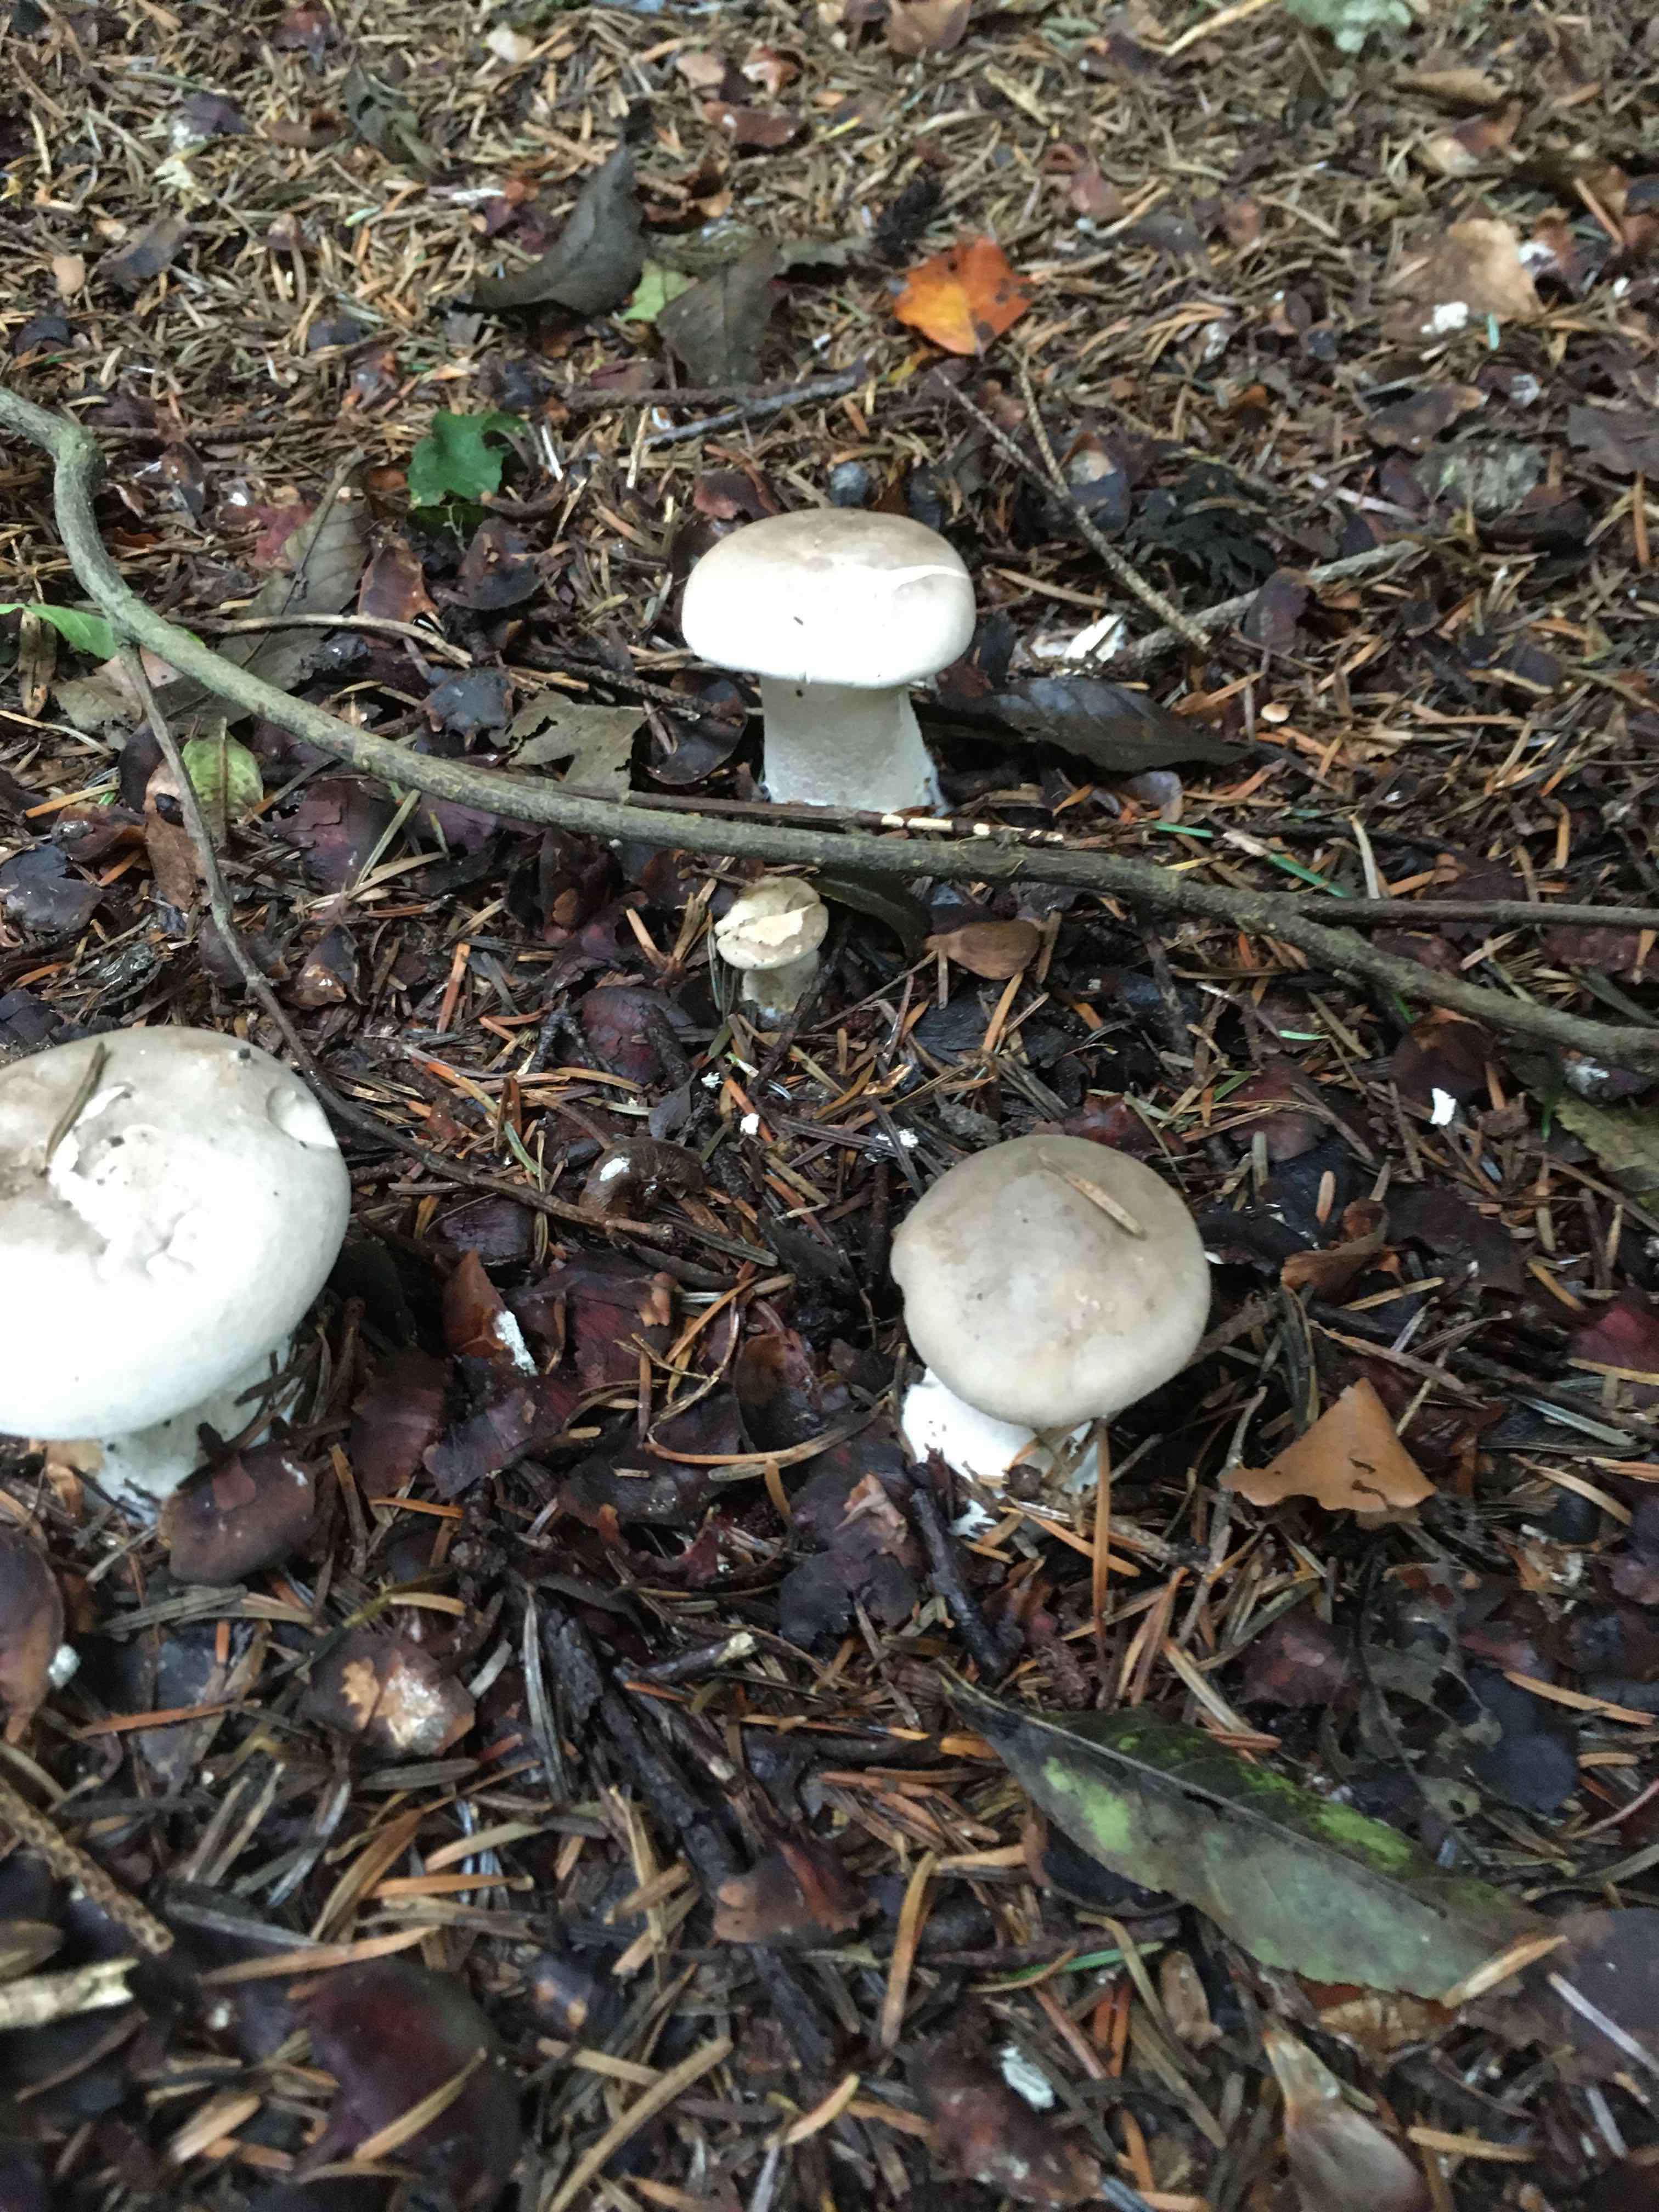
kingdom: Fungi
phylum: Basidiomycota
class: Agaricomycetes
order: Agaricales
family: Tricholomataceae
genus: Clitocybe
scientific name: Clitocybe nebularis
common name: tåge-tragthat
